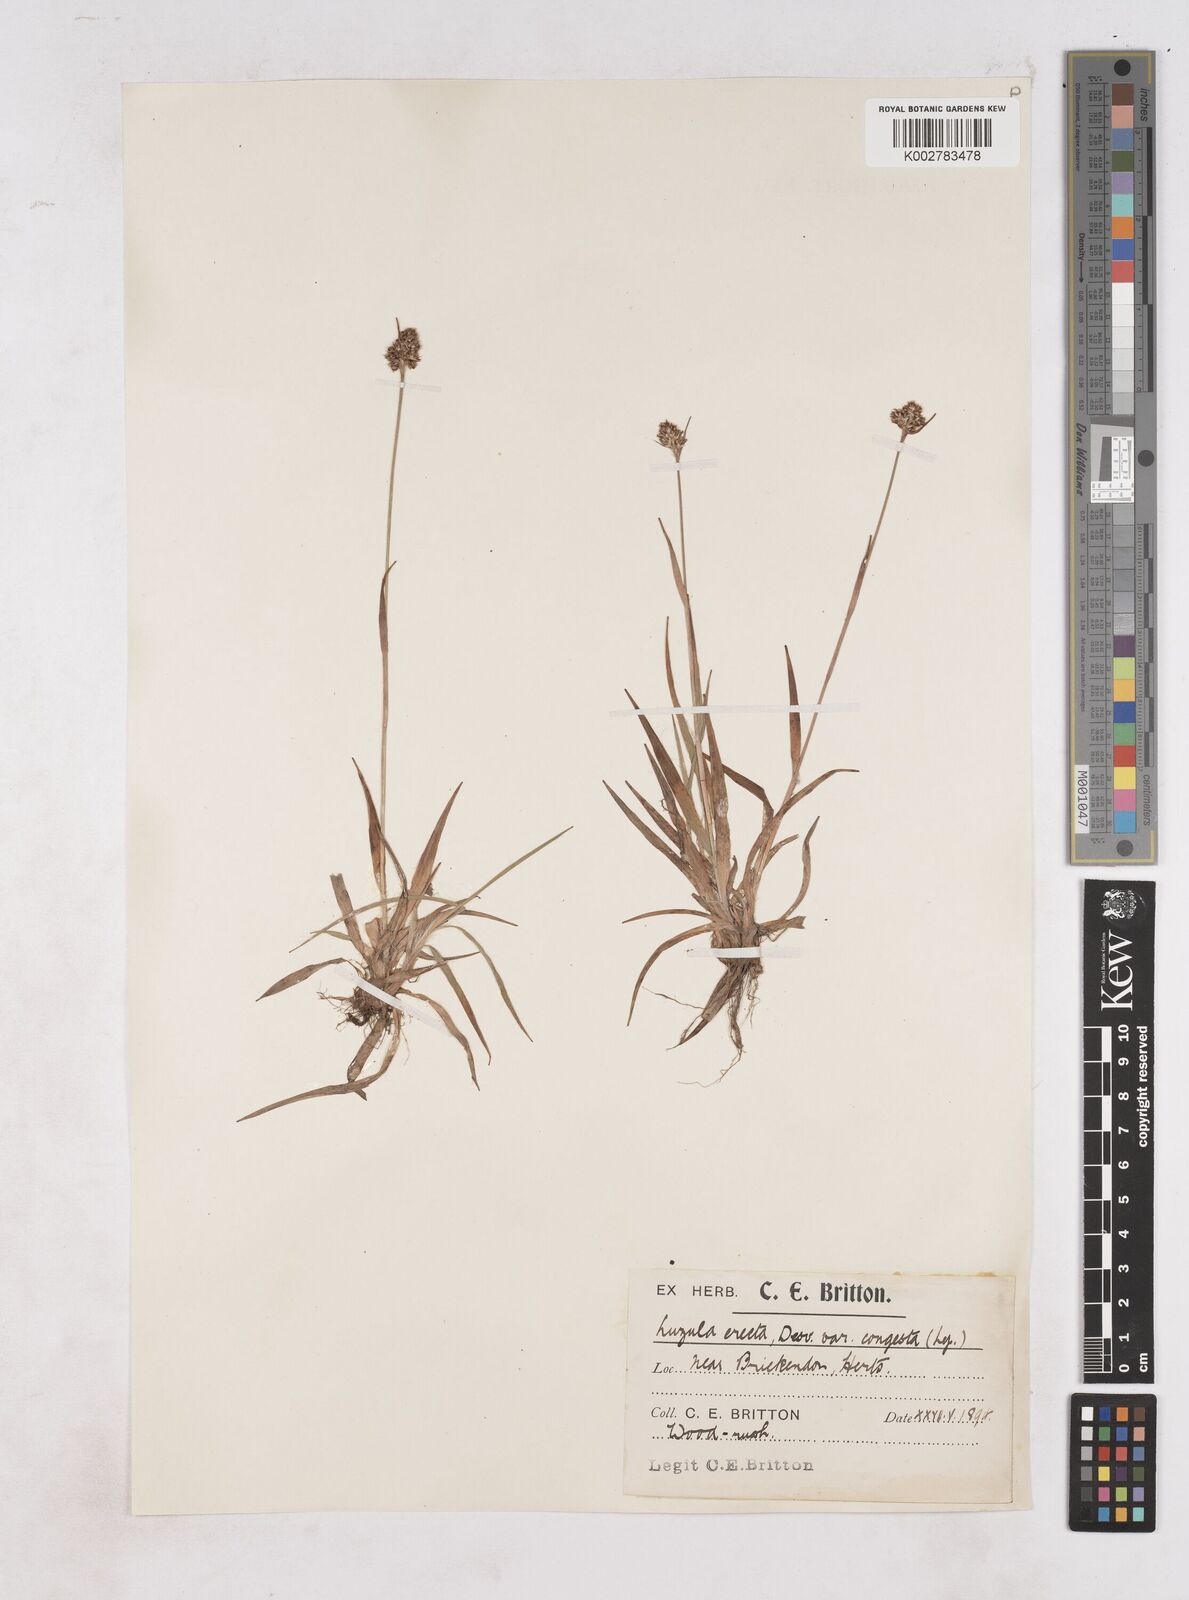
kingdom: Plantae
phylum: Tracheophyta
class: Liliopsida
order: Poales
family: Juncaceae
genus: Luzula
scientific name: Luzula campestris
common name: Field wood-rush
